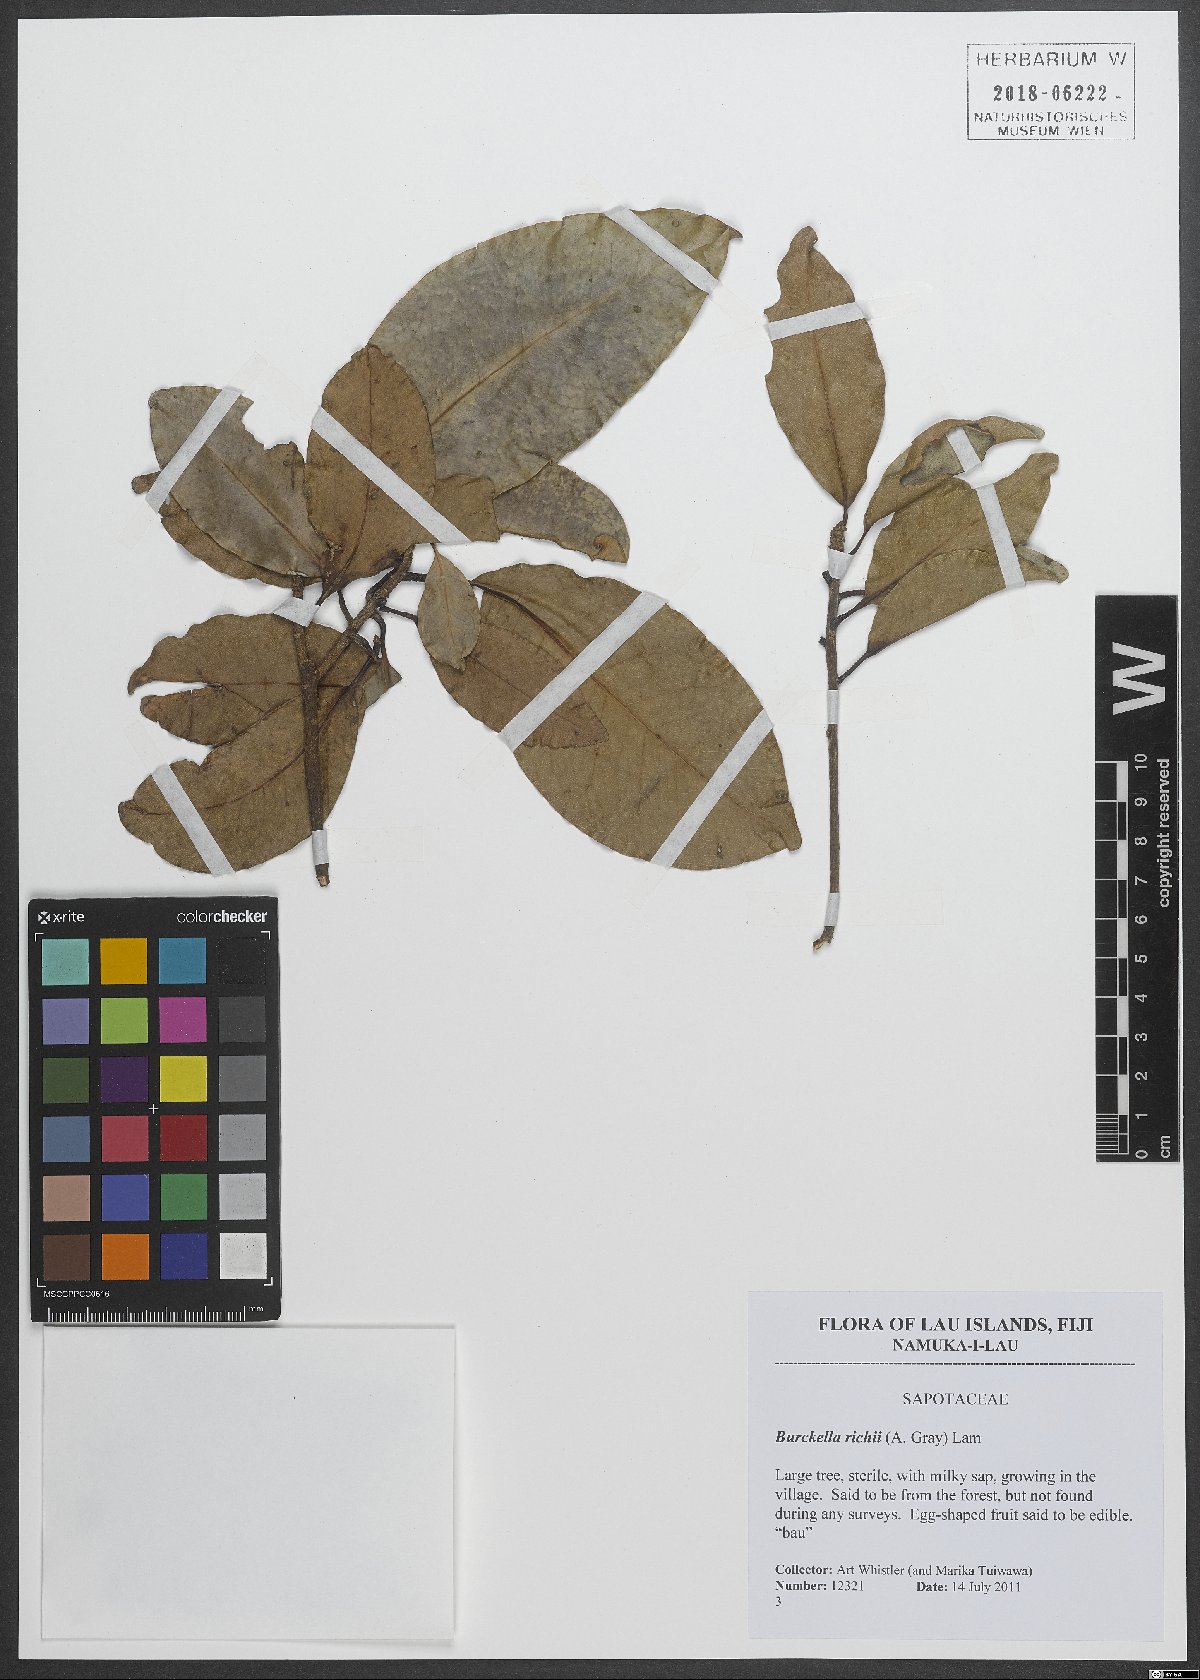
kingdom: Plantae
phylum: Tracheophyta
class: Magnoliopsida
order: Ericales
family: Sapotaceae
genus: Burckella
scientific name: Burckella richii
